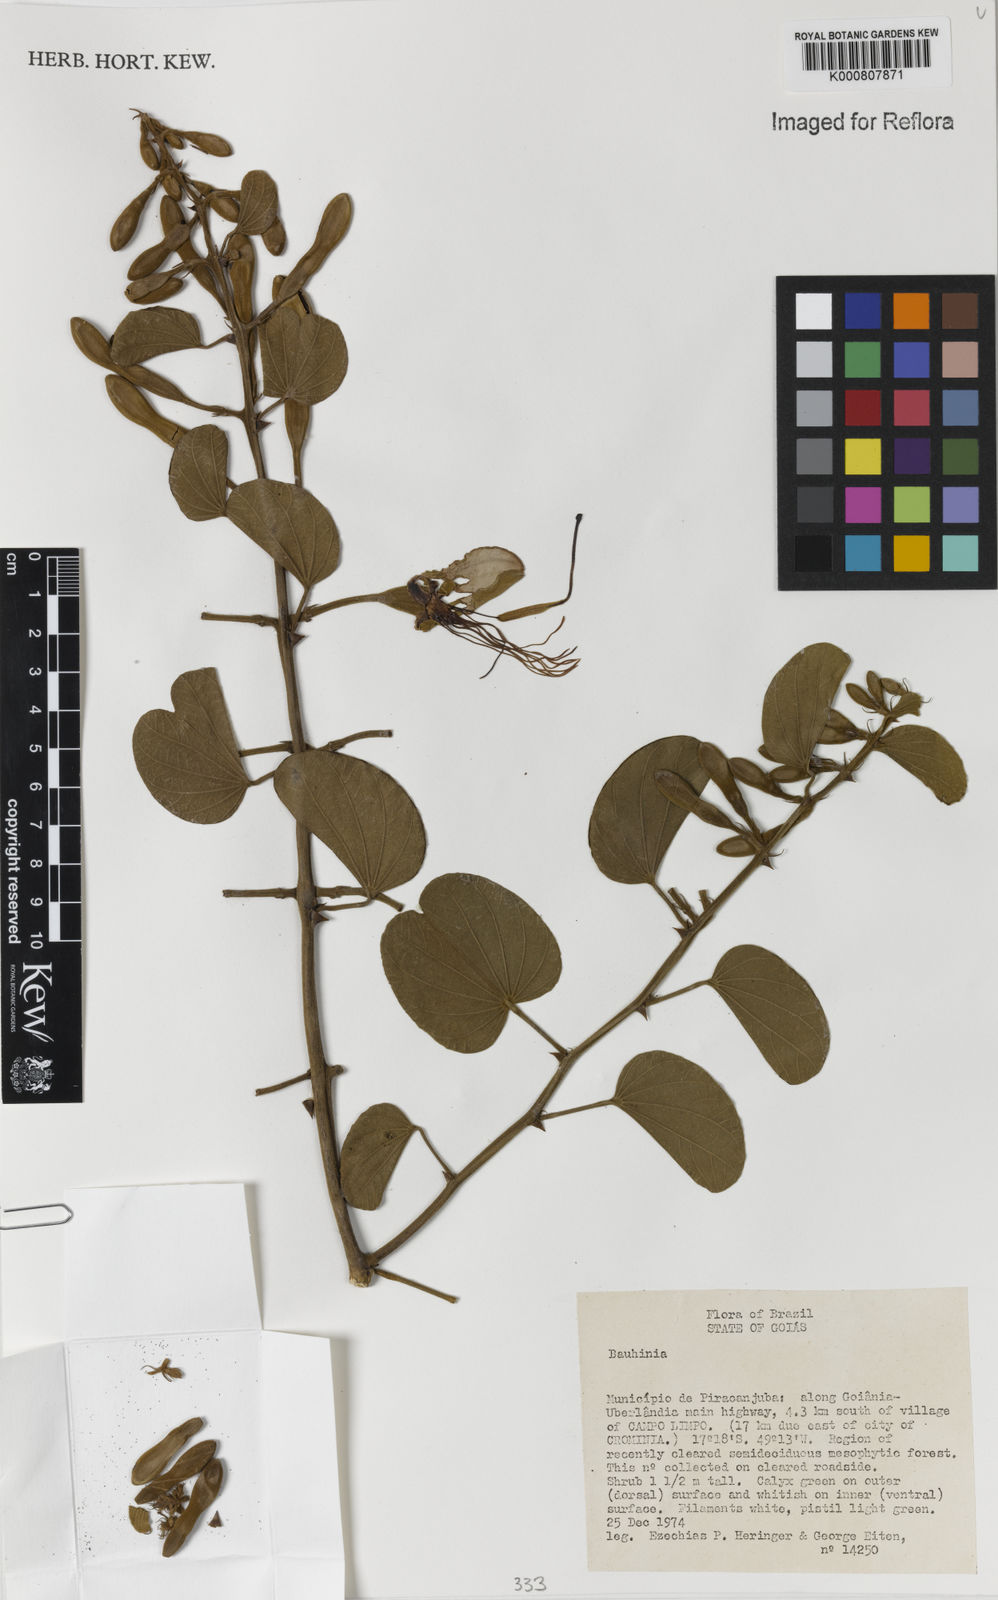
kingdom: Plantae
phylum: Tracheophyta
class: Magnoliopsida
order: Fabales
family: Fabaceae
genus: Bauhinia
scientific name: Bauhinia
